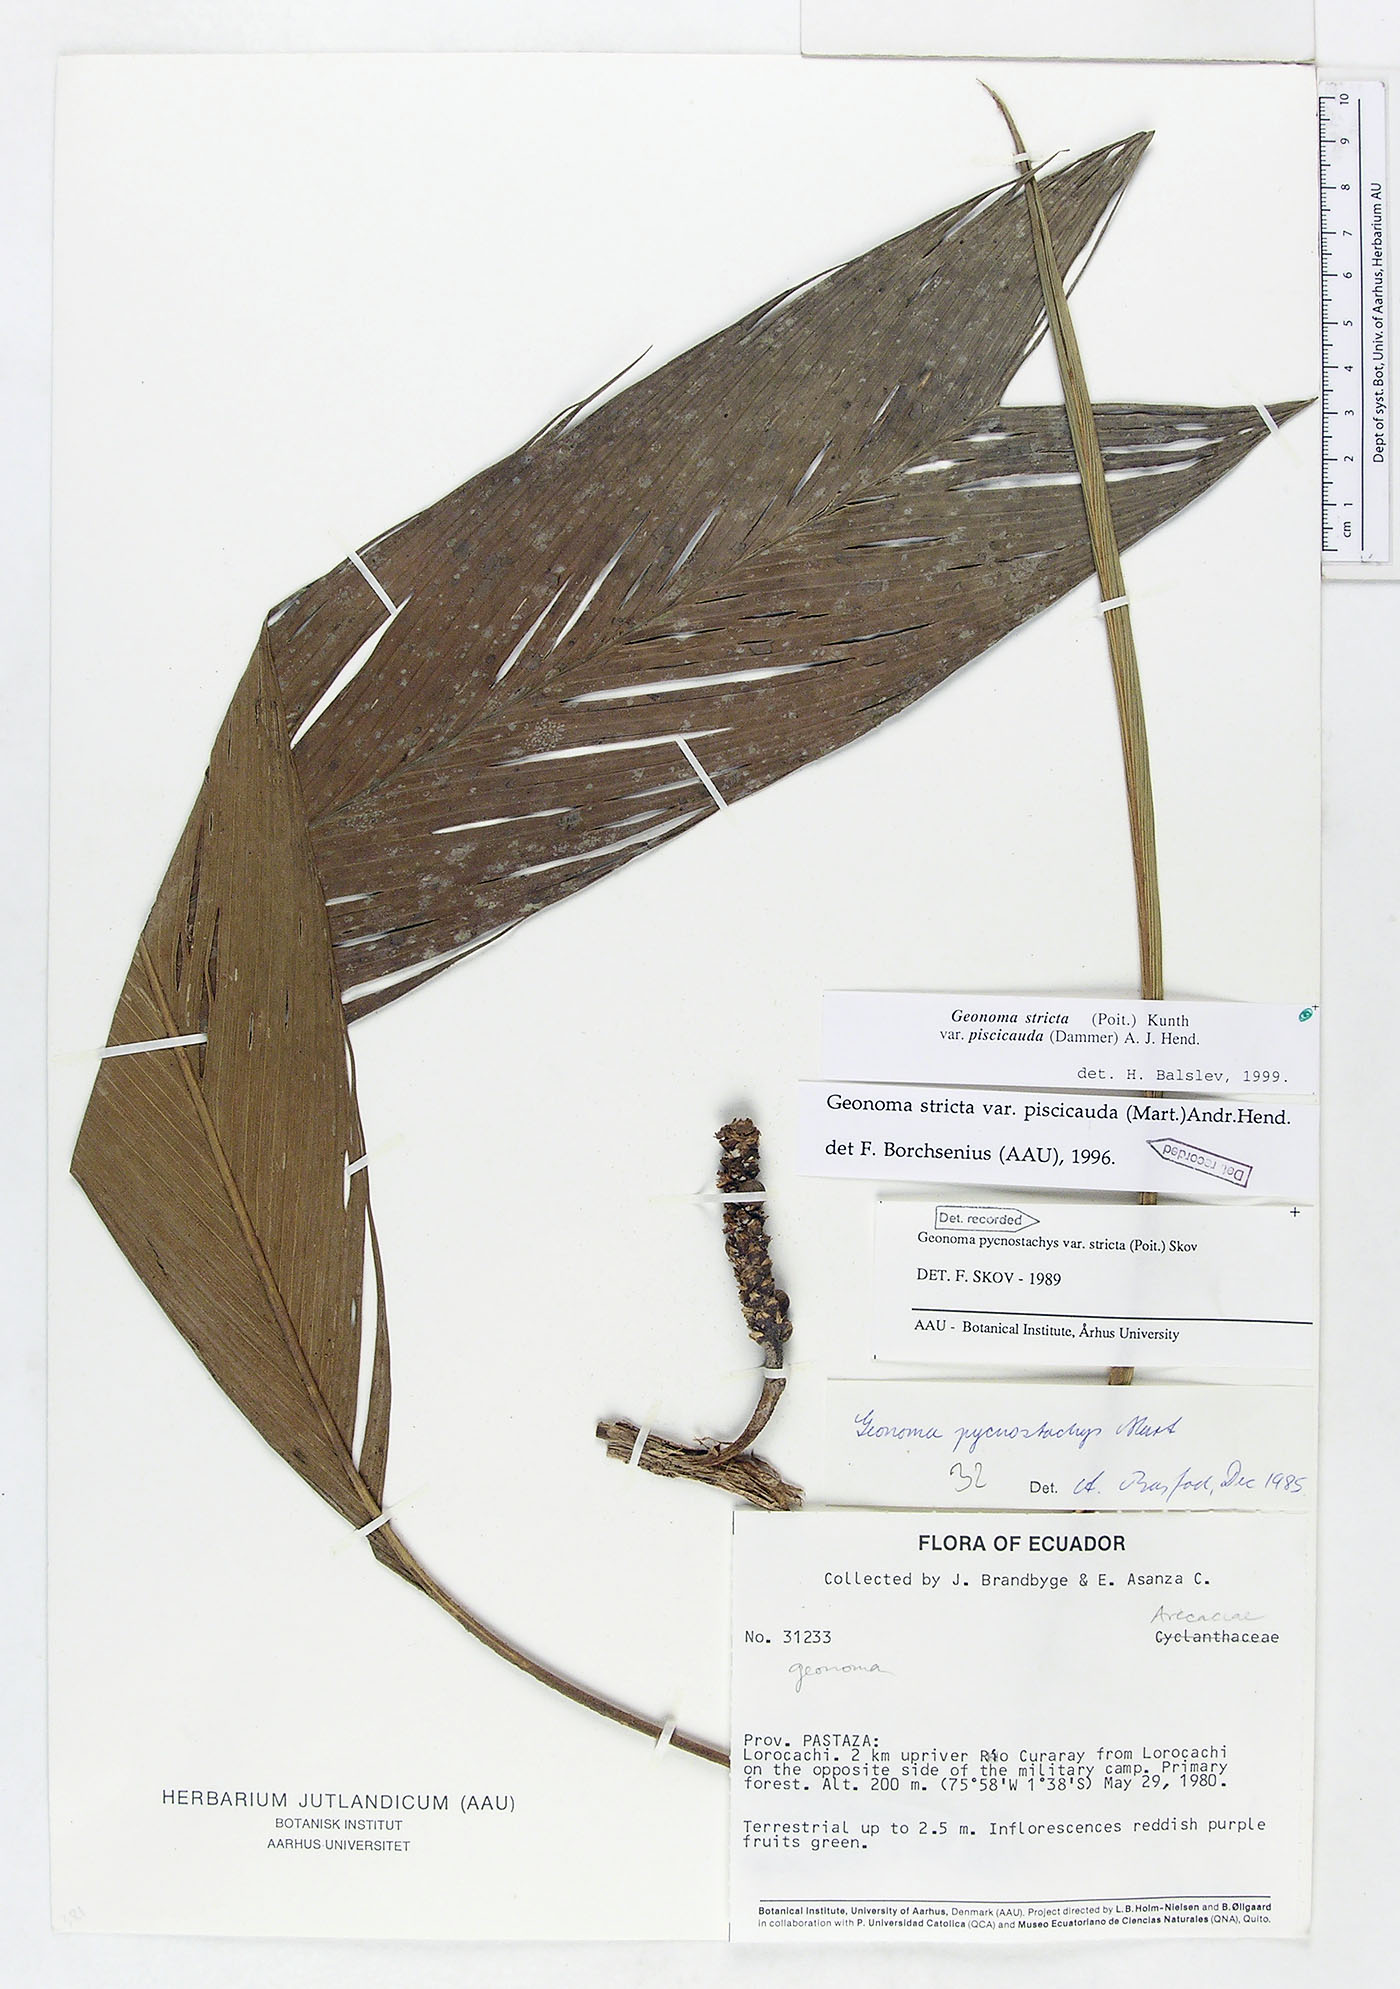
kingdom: Plantae
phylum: Tracheophyta
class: Liliopsida
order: Arecales
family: Arecaceae
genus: Geonoma
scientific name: Geonoma stricta
